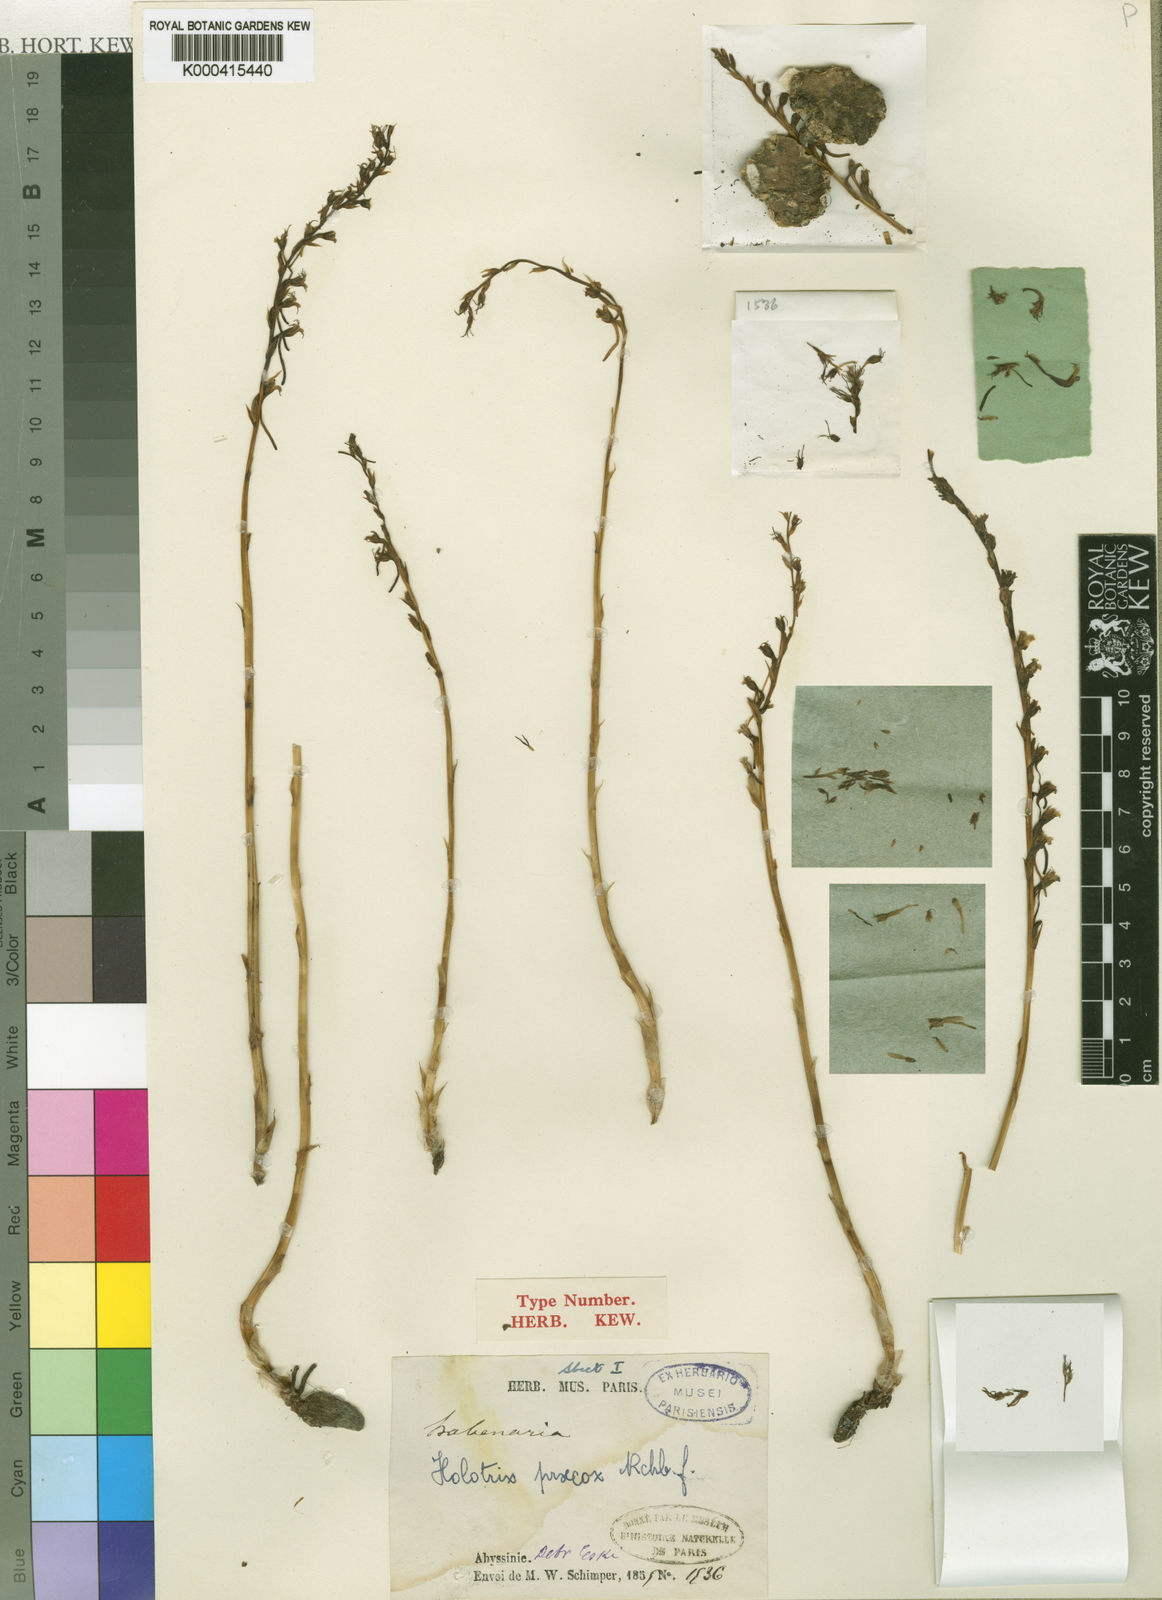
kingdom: Plantae
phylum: Tracheophyta
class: Liliopsida
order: Asparagales
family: Orchidaceae
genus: Holothrix
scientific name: Holothrix praecox
